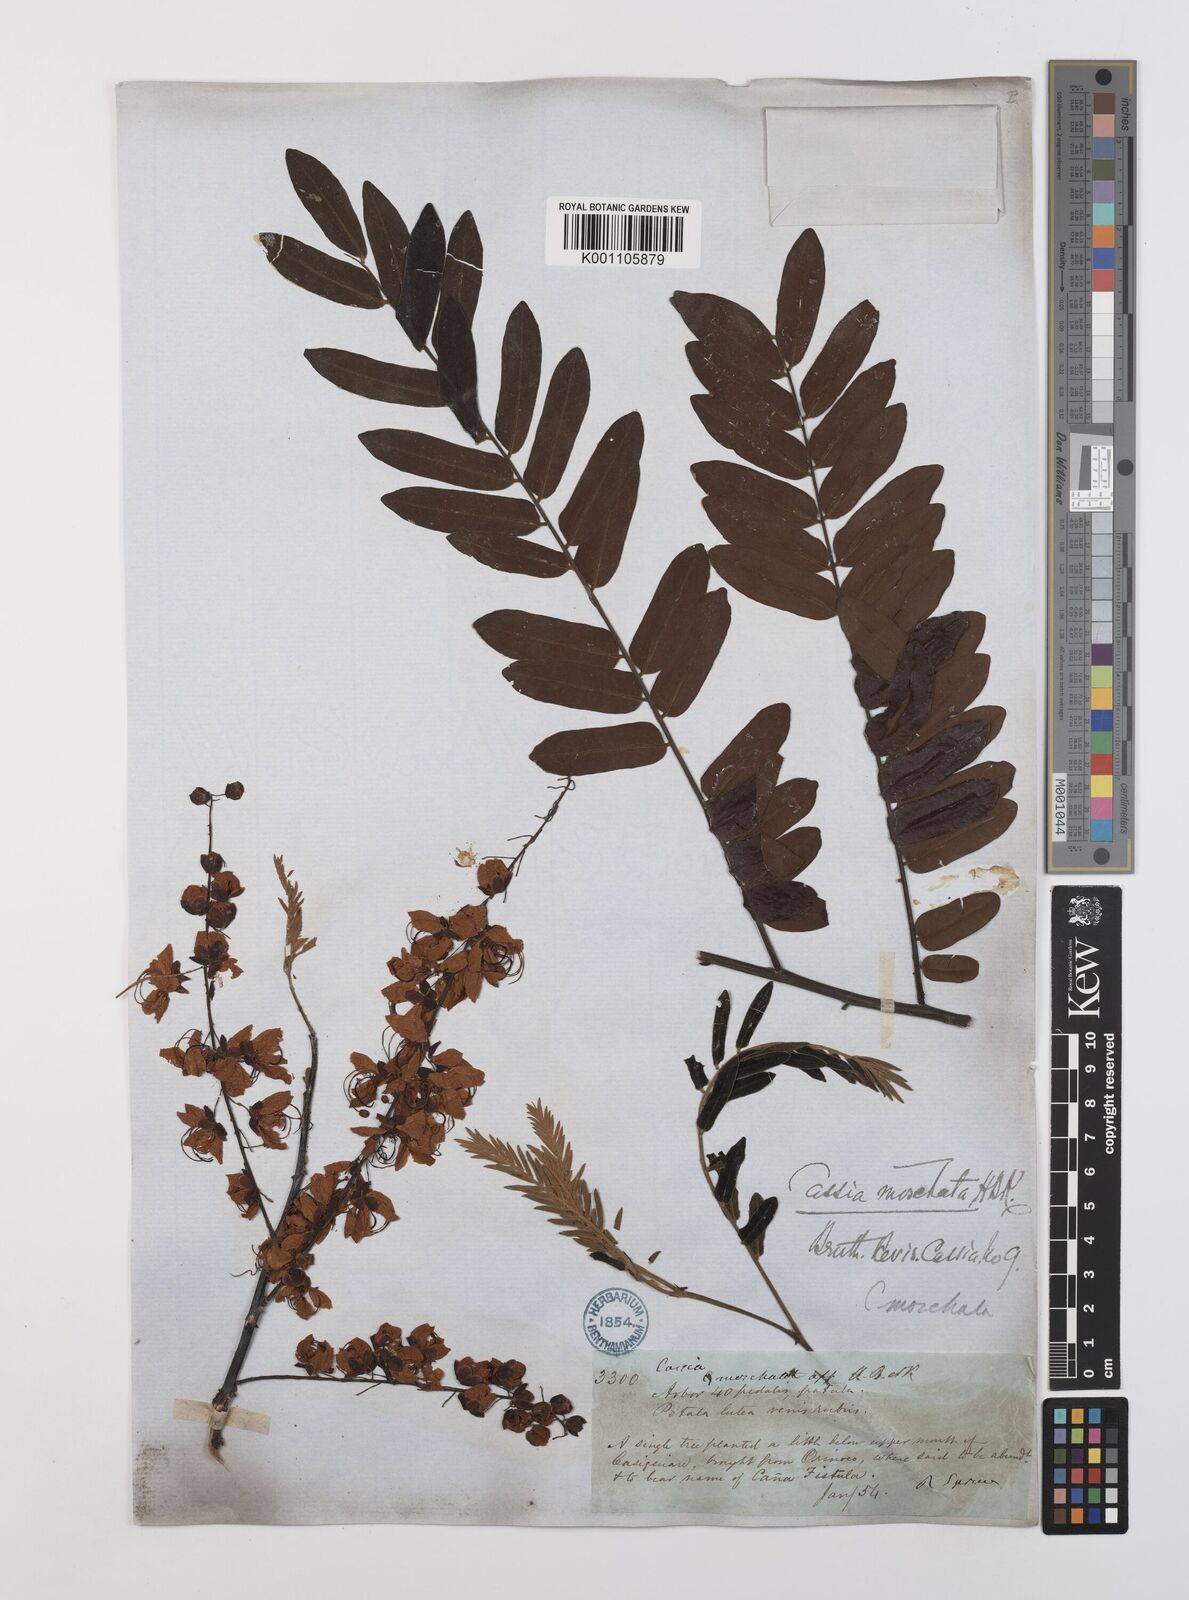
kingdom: Plantae
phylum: Tracheophyta
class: Magnoliopsida
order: Fabales
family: Fabaceae
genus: Cassia
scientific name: Cassia moschata
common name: Bronze shower tree
